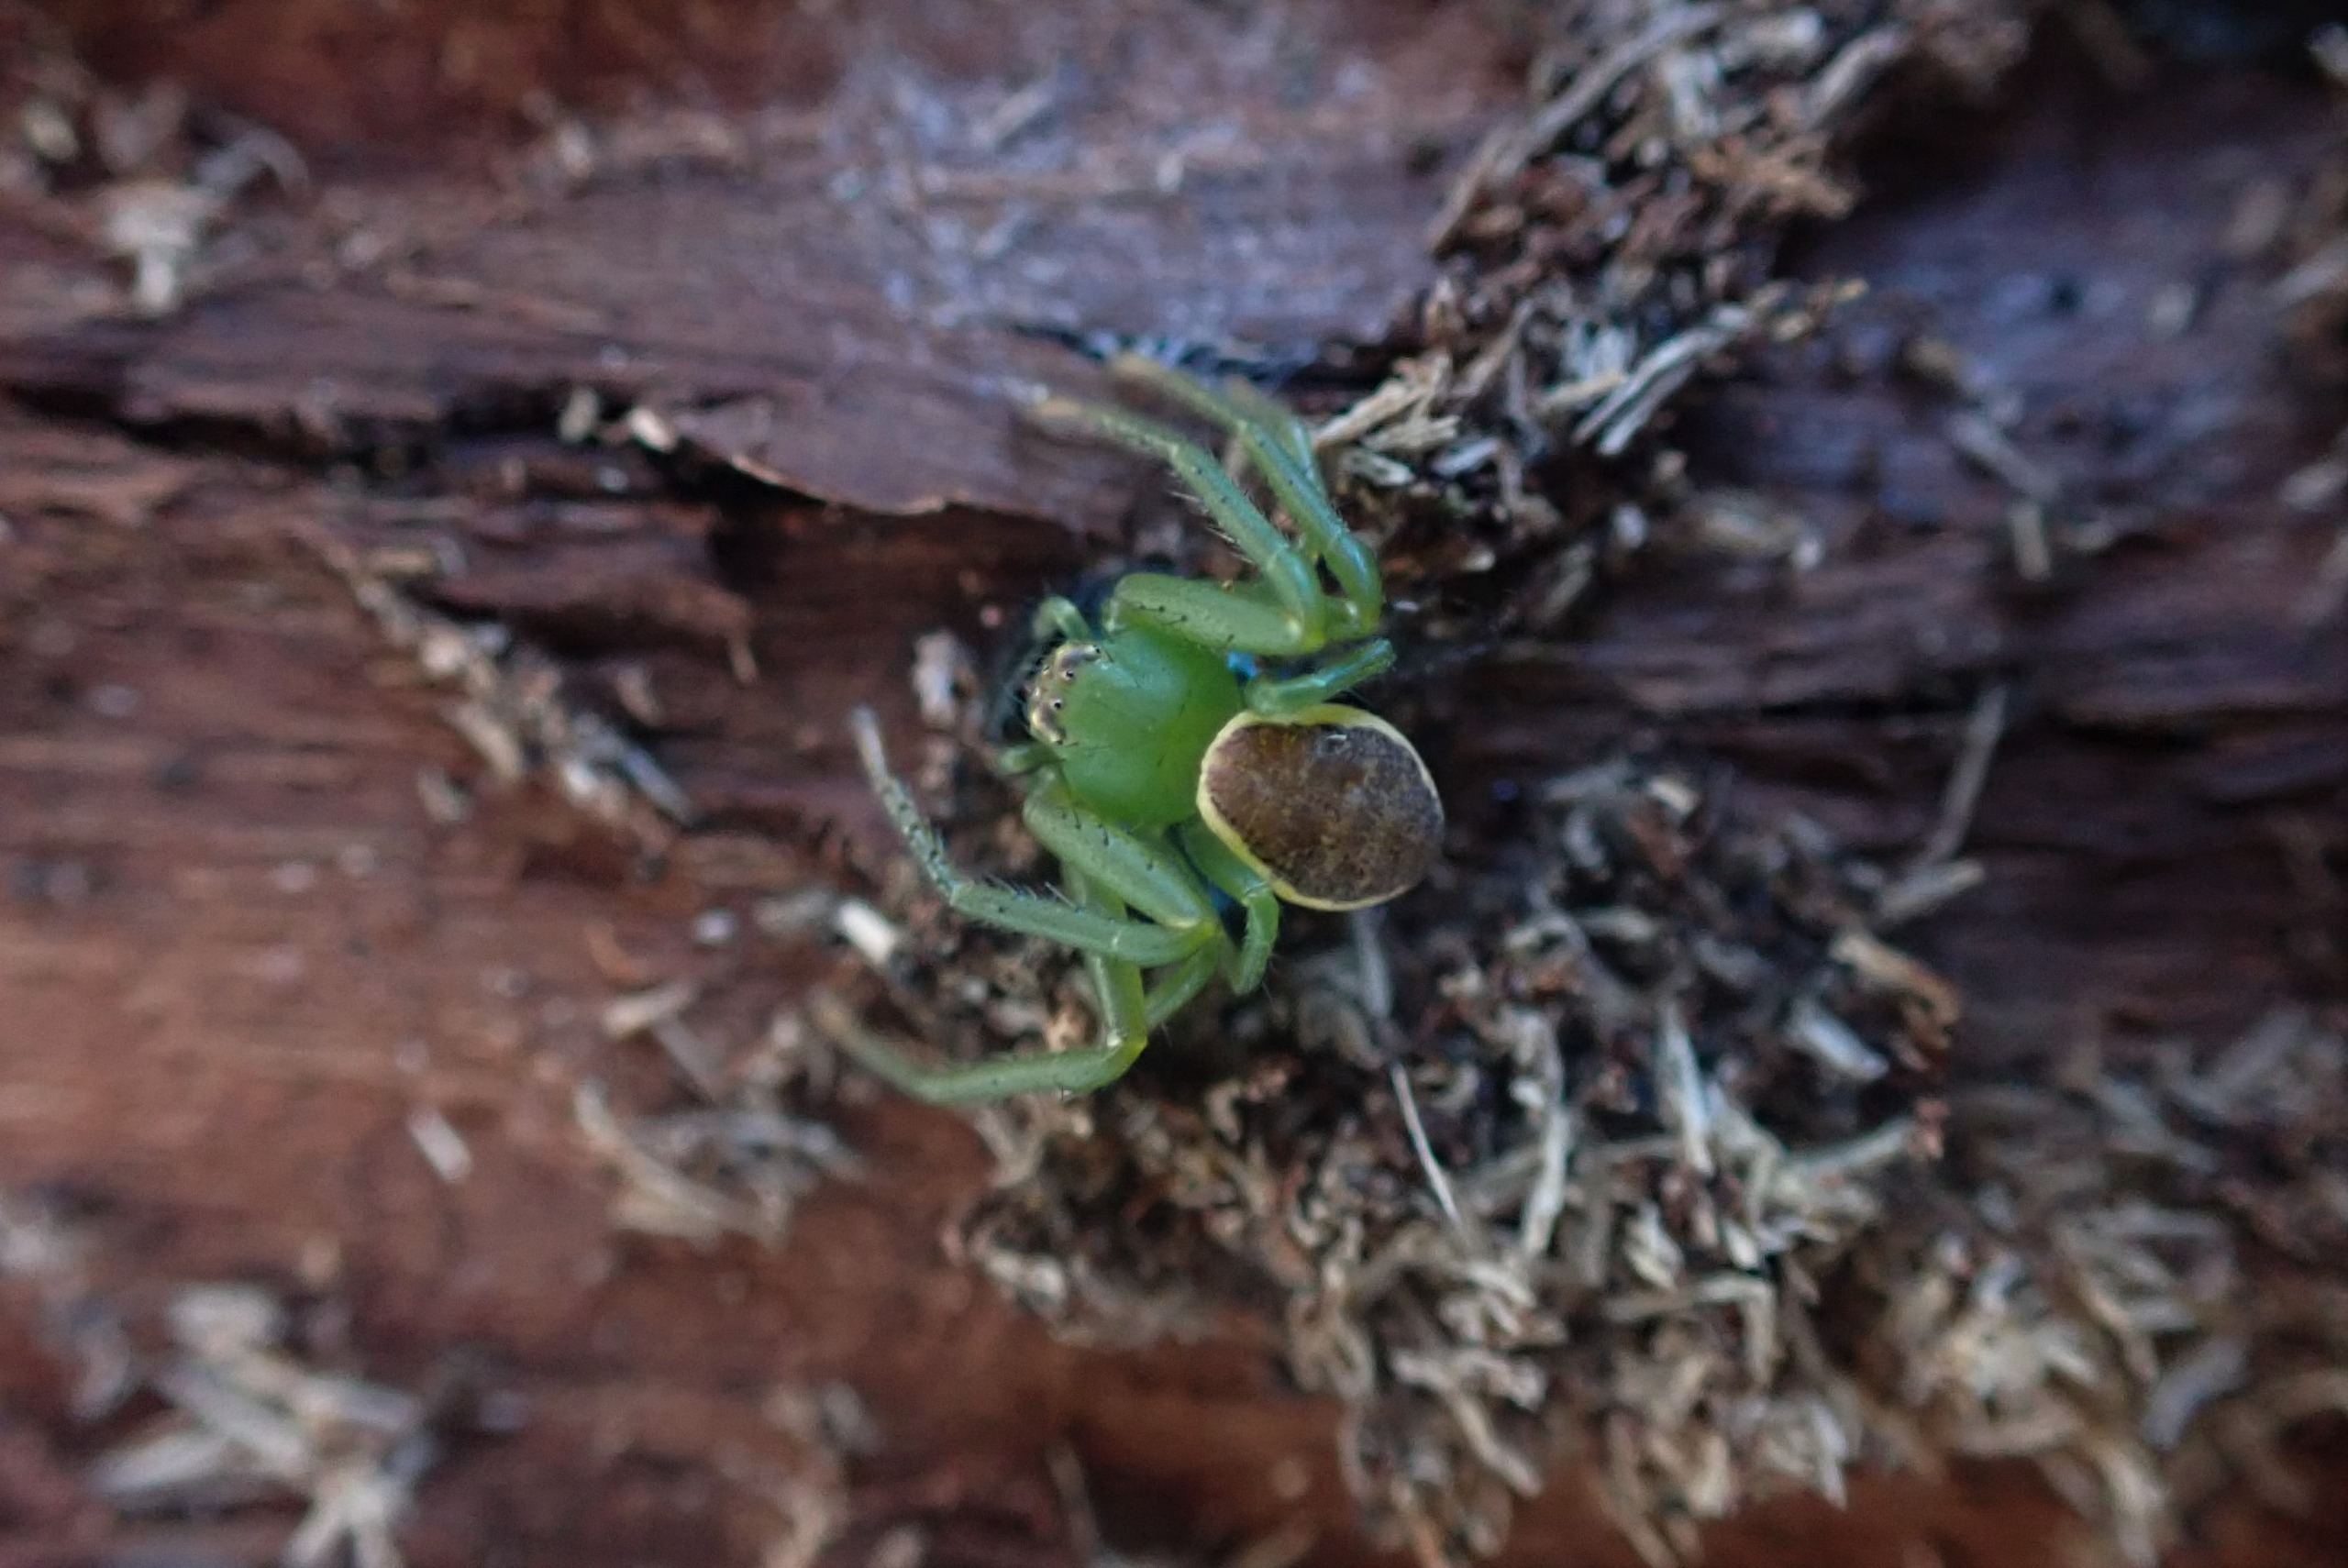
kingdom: Animalia
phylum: Arthropoda
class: Arachnida
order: Araneae
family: Thomisidae
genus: Diaea
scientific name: Diaea dorsata
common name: Grøn krabbeedderkop
